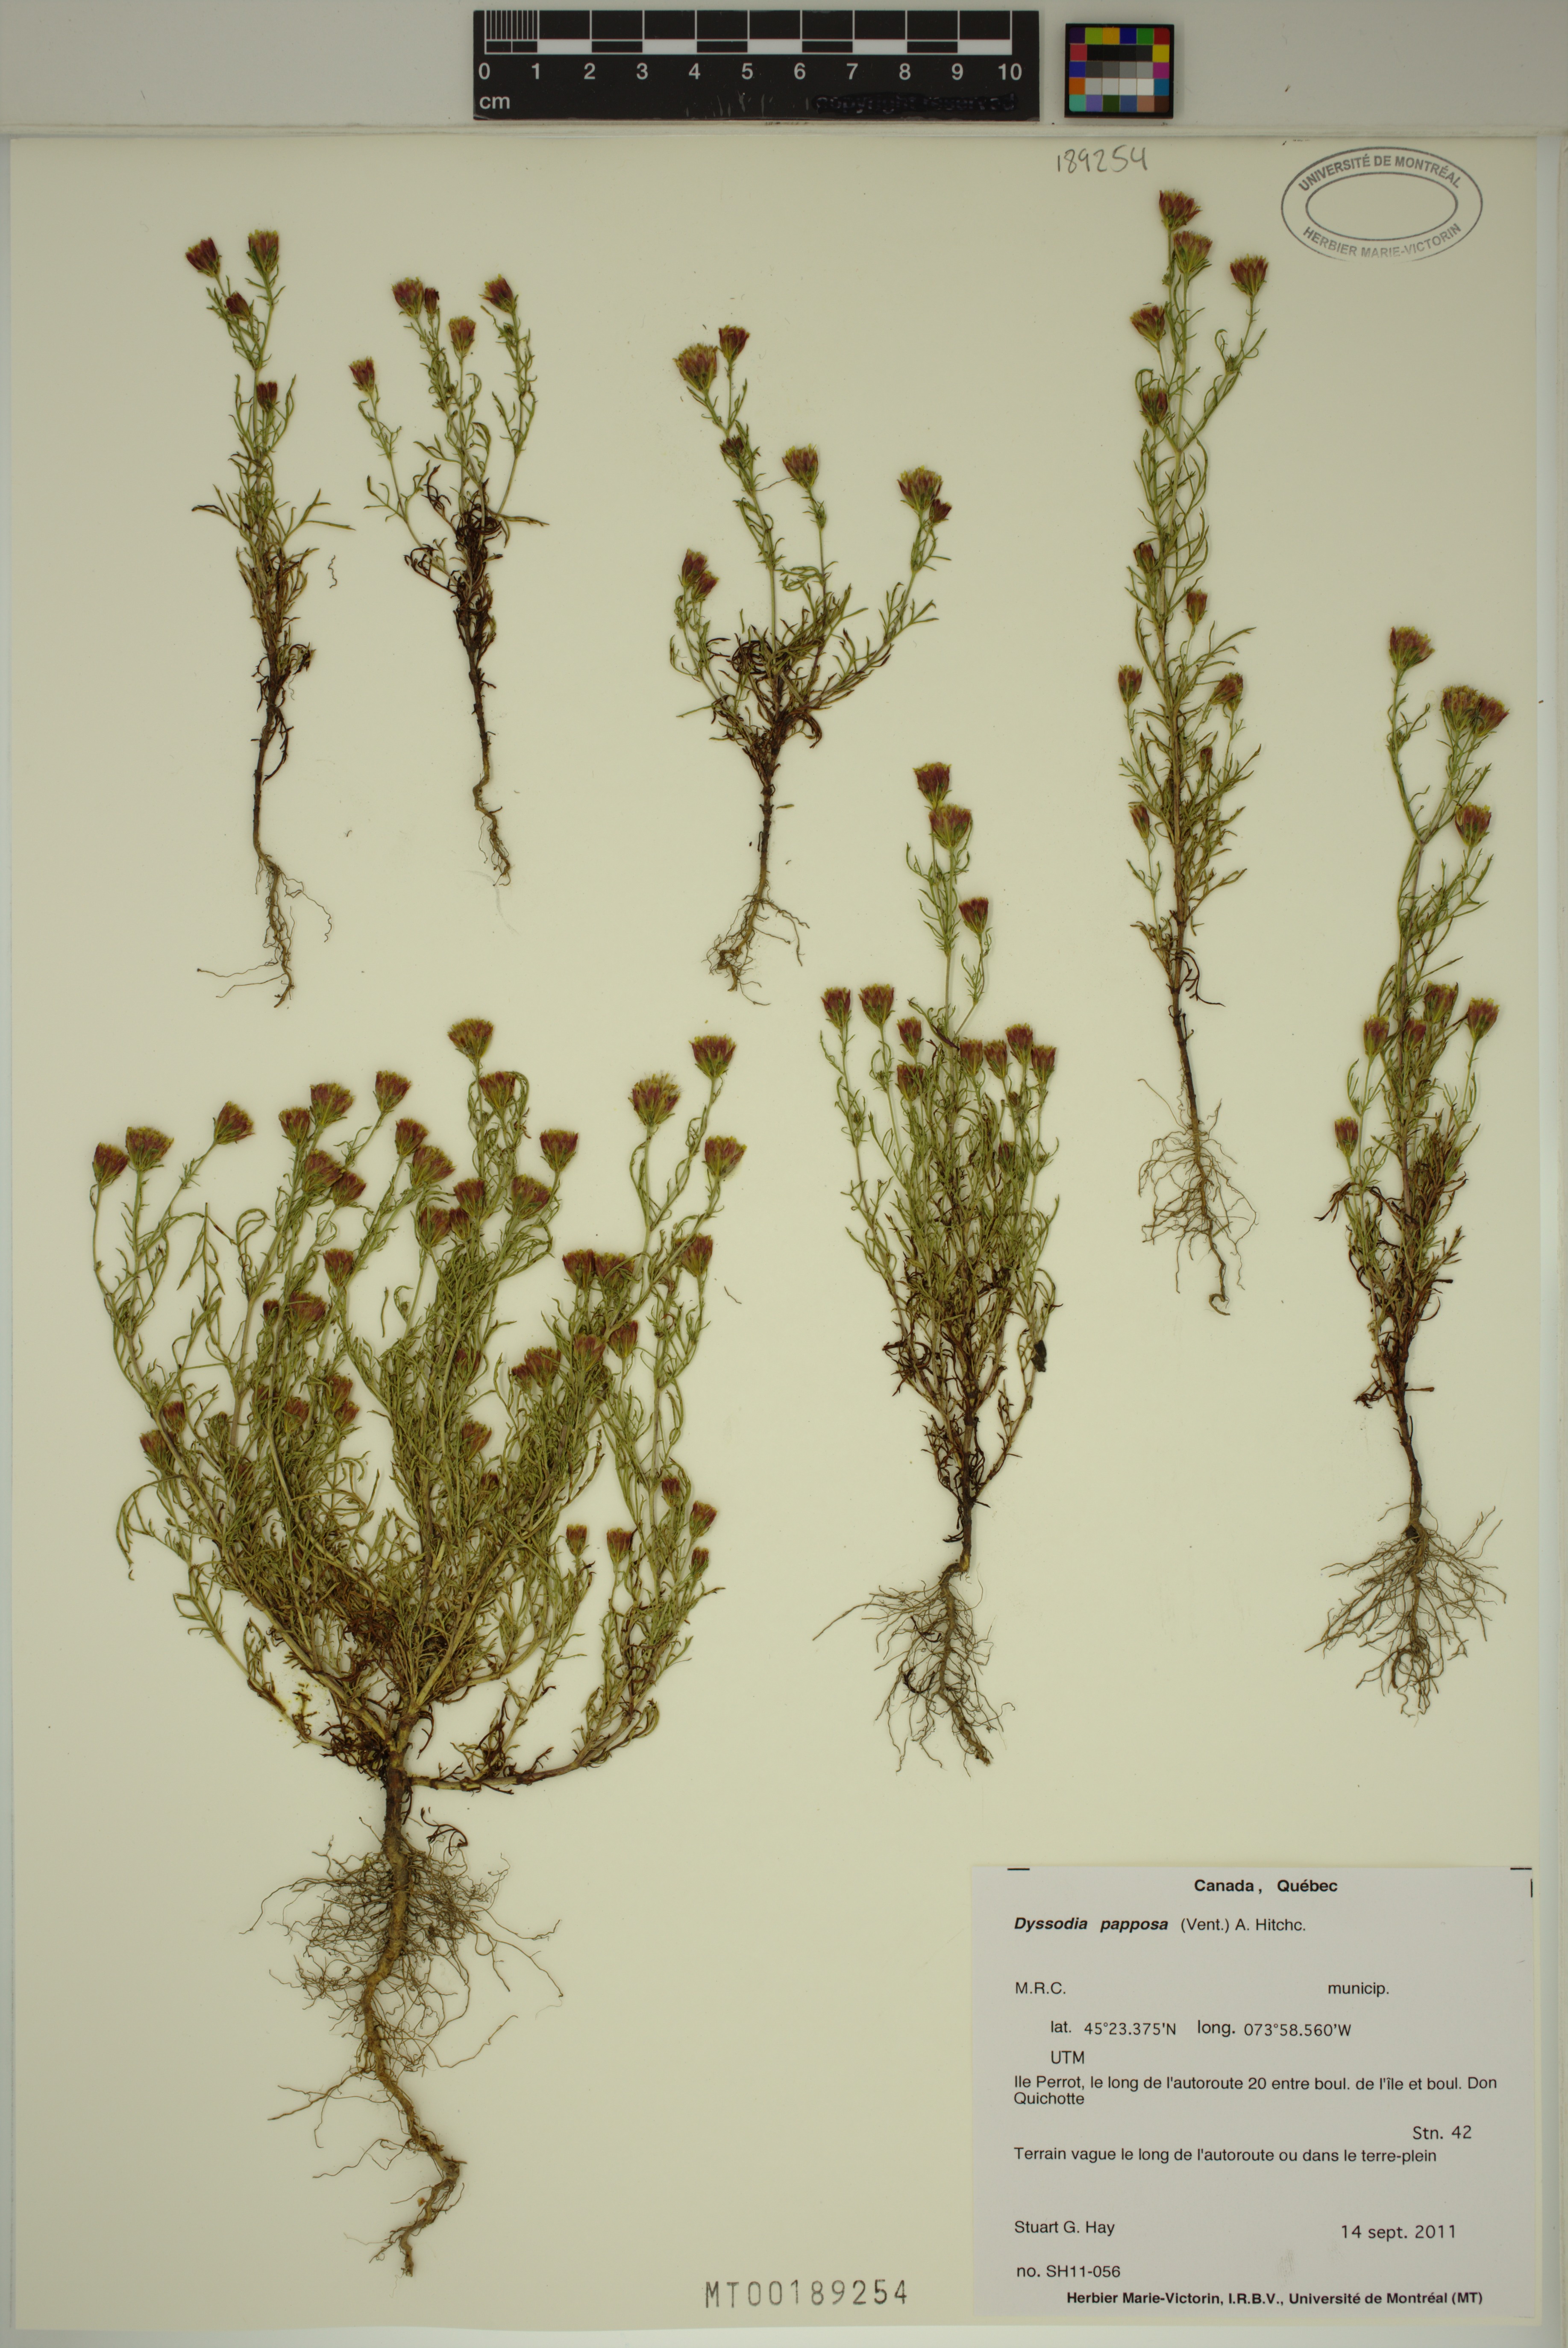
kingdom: Plantae
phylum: Tracheophyta
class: Magnoliopsida
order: Asterales
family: Asteraceae
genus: Dyssodia
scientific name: Dyssodia papposa
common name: Dogweed
